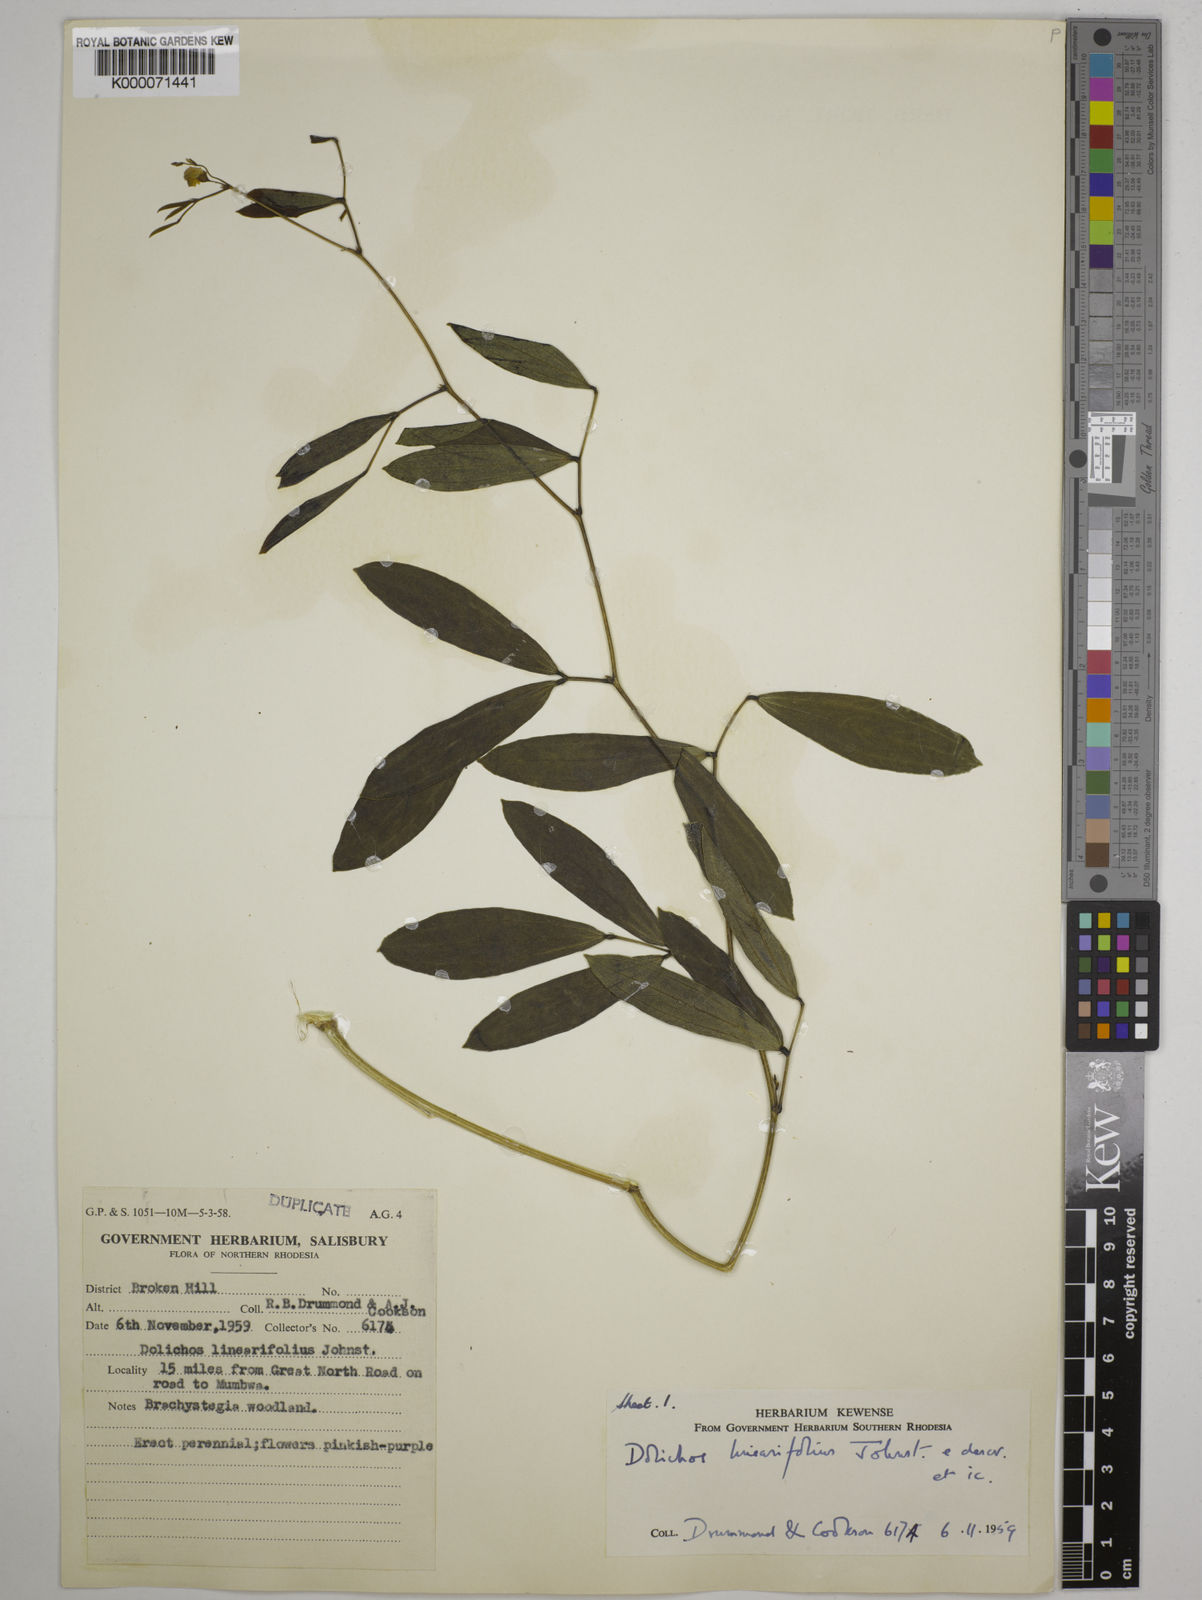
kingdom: Plantae
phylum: Tracheophyta
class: Magnoliopsida
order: Fabales
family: Fabaceae
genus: Dolichos
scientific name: Dolichos linearifolius
